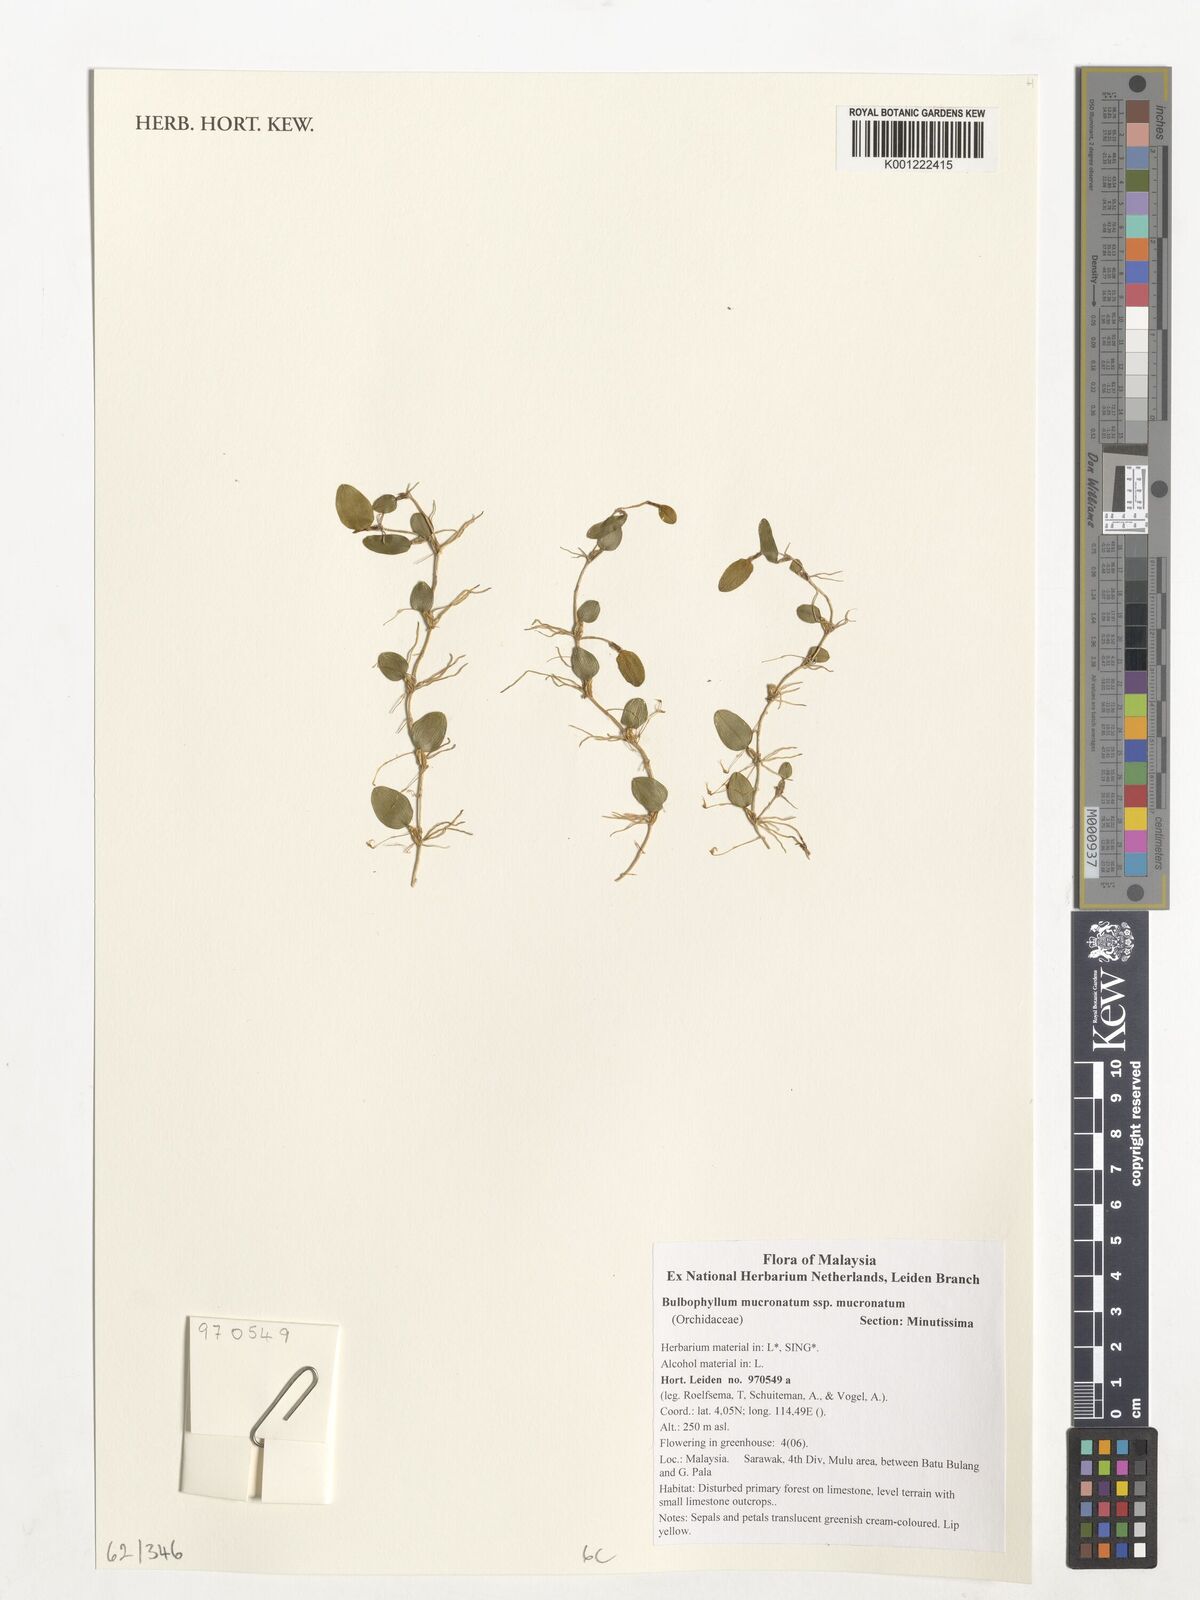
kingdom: Plantae
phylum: Tracheophyta
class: Liliopsida
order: Asparagales
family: Orchidaceae
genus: Bulbophyllum
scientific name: Bulbophyllum mucronatum
